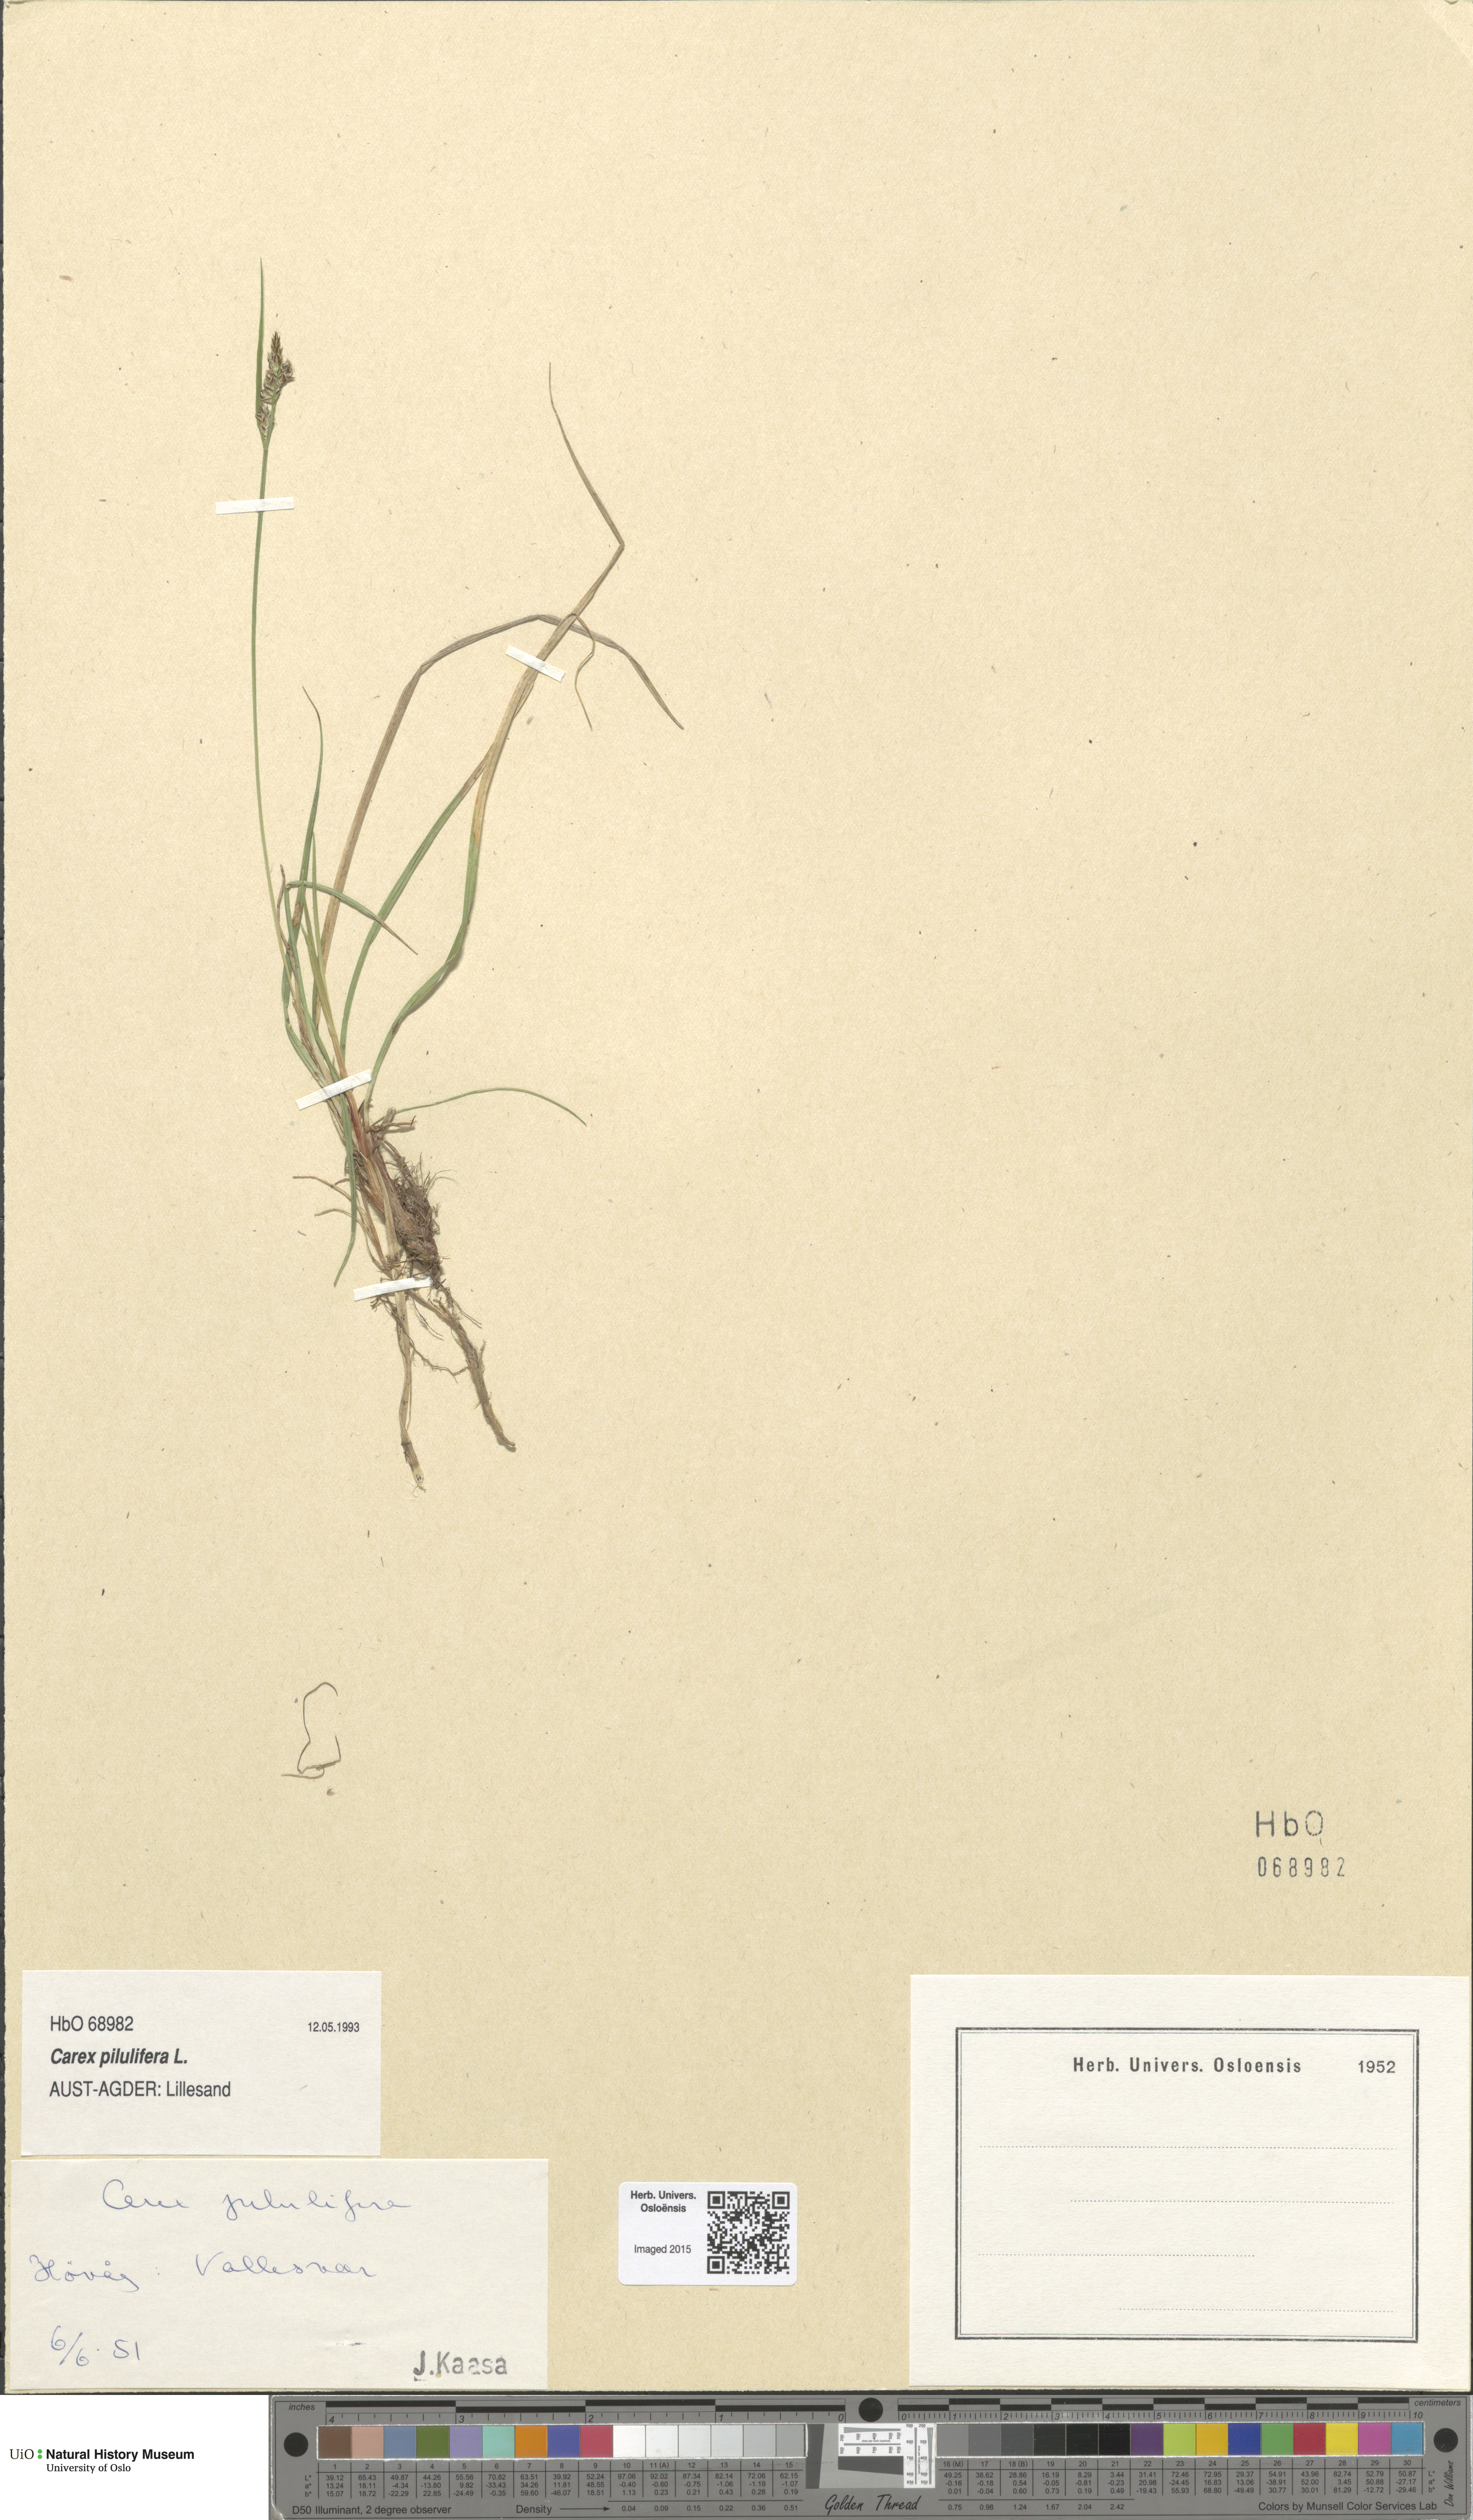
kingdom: Plantae
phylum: Tracheophyta
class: Liliopsida
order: Poales
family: Cyperaceae
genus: Carex
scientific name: Carex pilulifera
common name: Pill sedge
